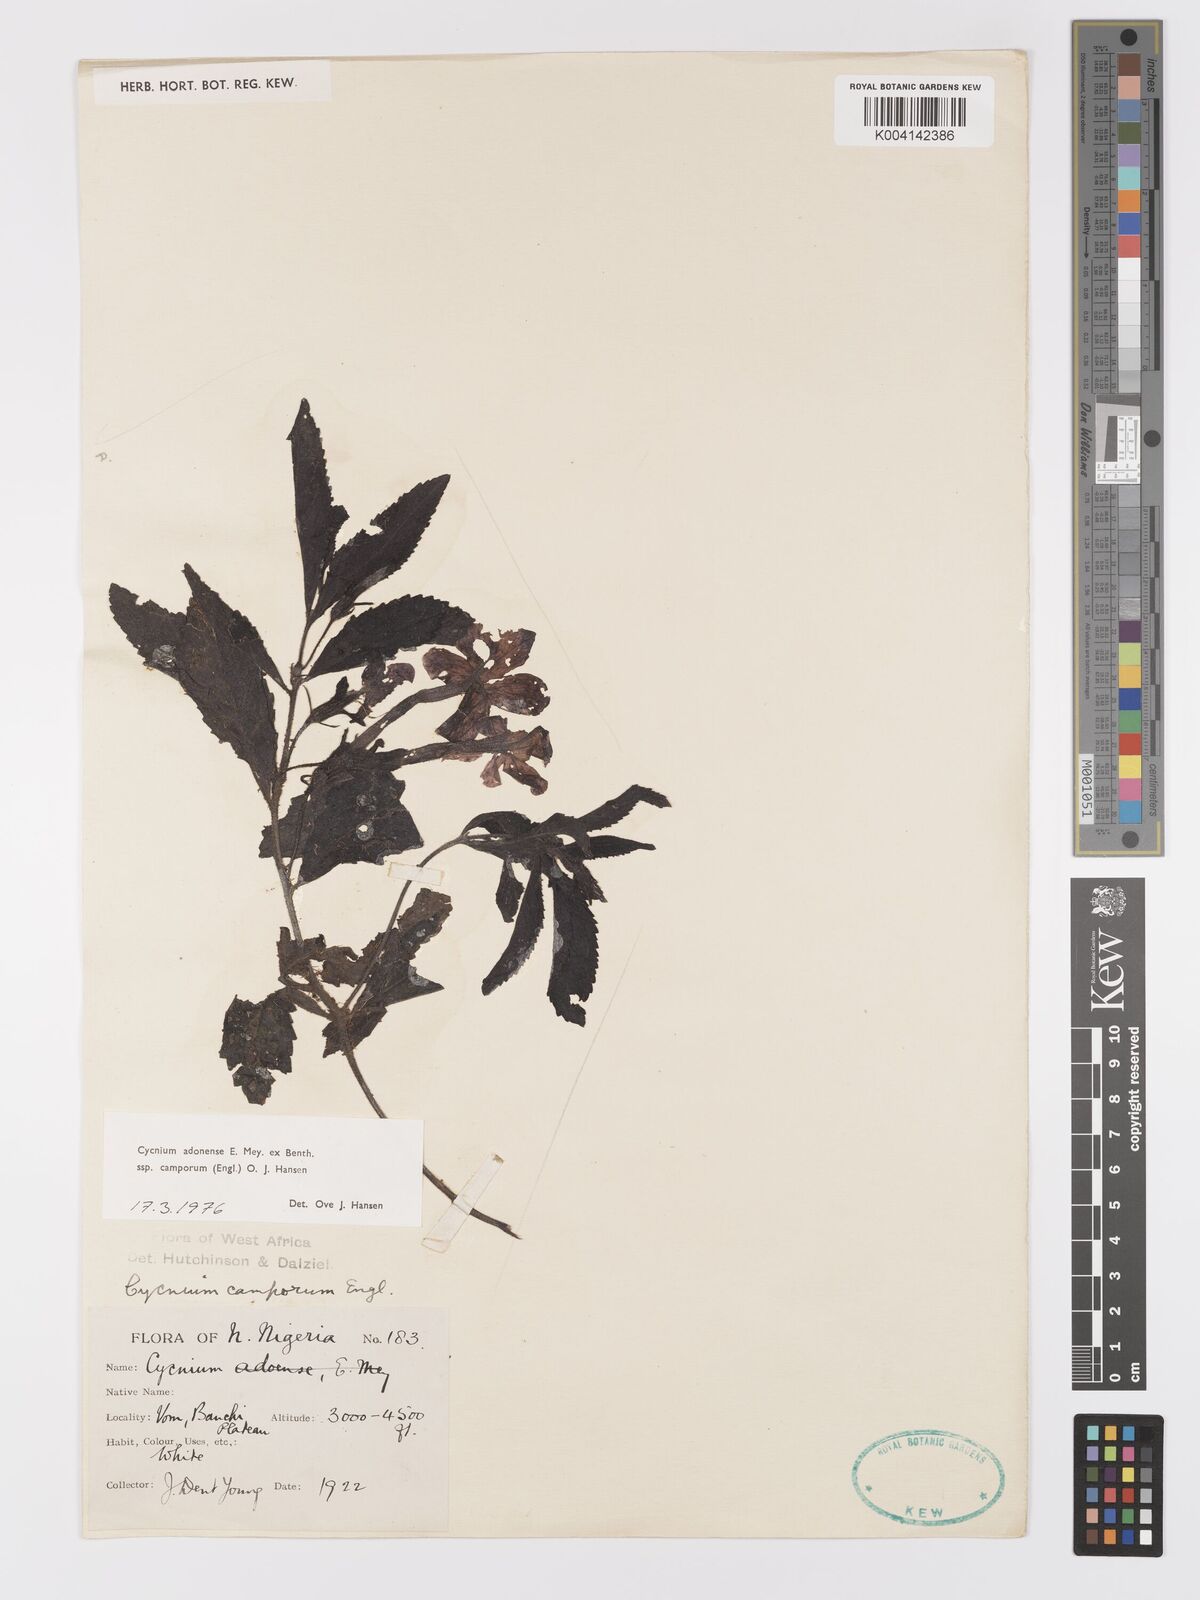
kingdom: Plantae
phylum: Tracheophyta
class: Magnoliopsida
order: Lamiales
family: Orobanchaceae
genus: Cycnium
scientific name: Cycnium adoense
